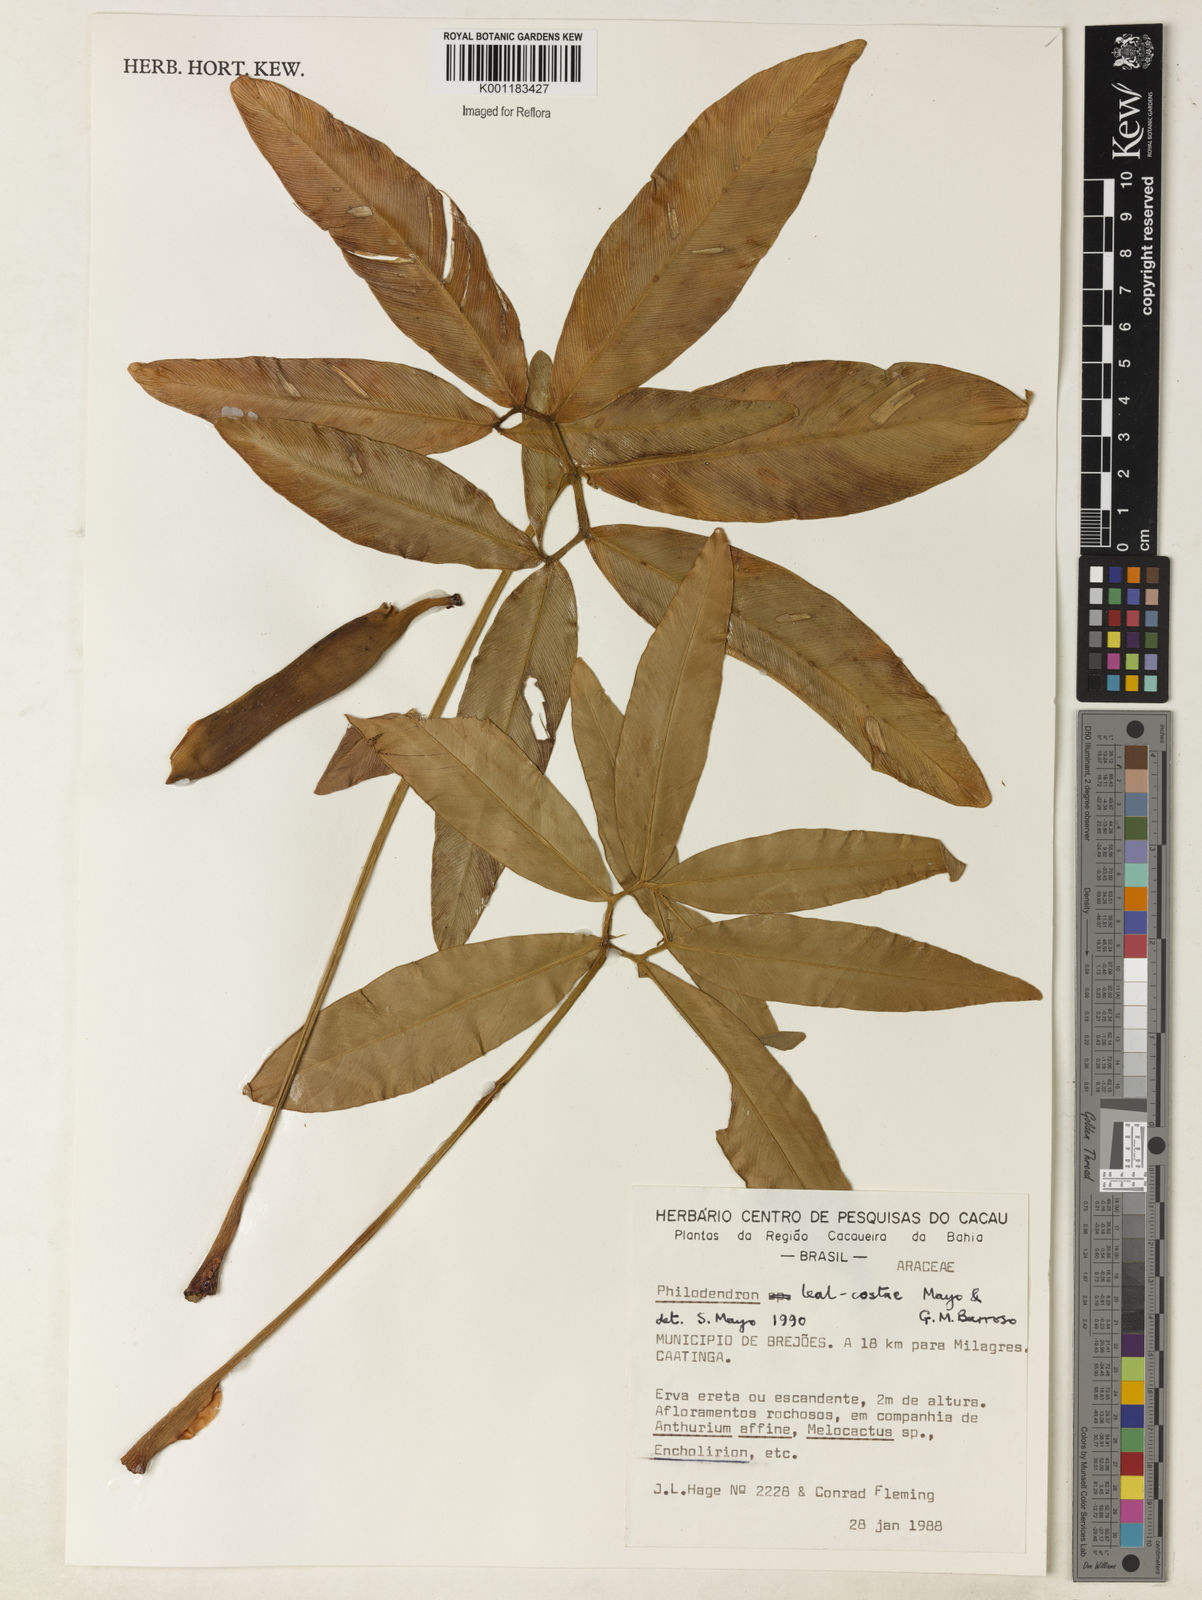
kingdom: Plantae
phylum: Tracheophyta
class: Liliopsida
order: Alismatales
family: Araceae
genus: Thaumatophyllum
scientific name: Thaumatophyllum leal-costae
